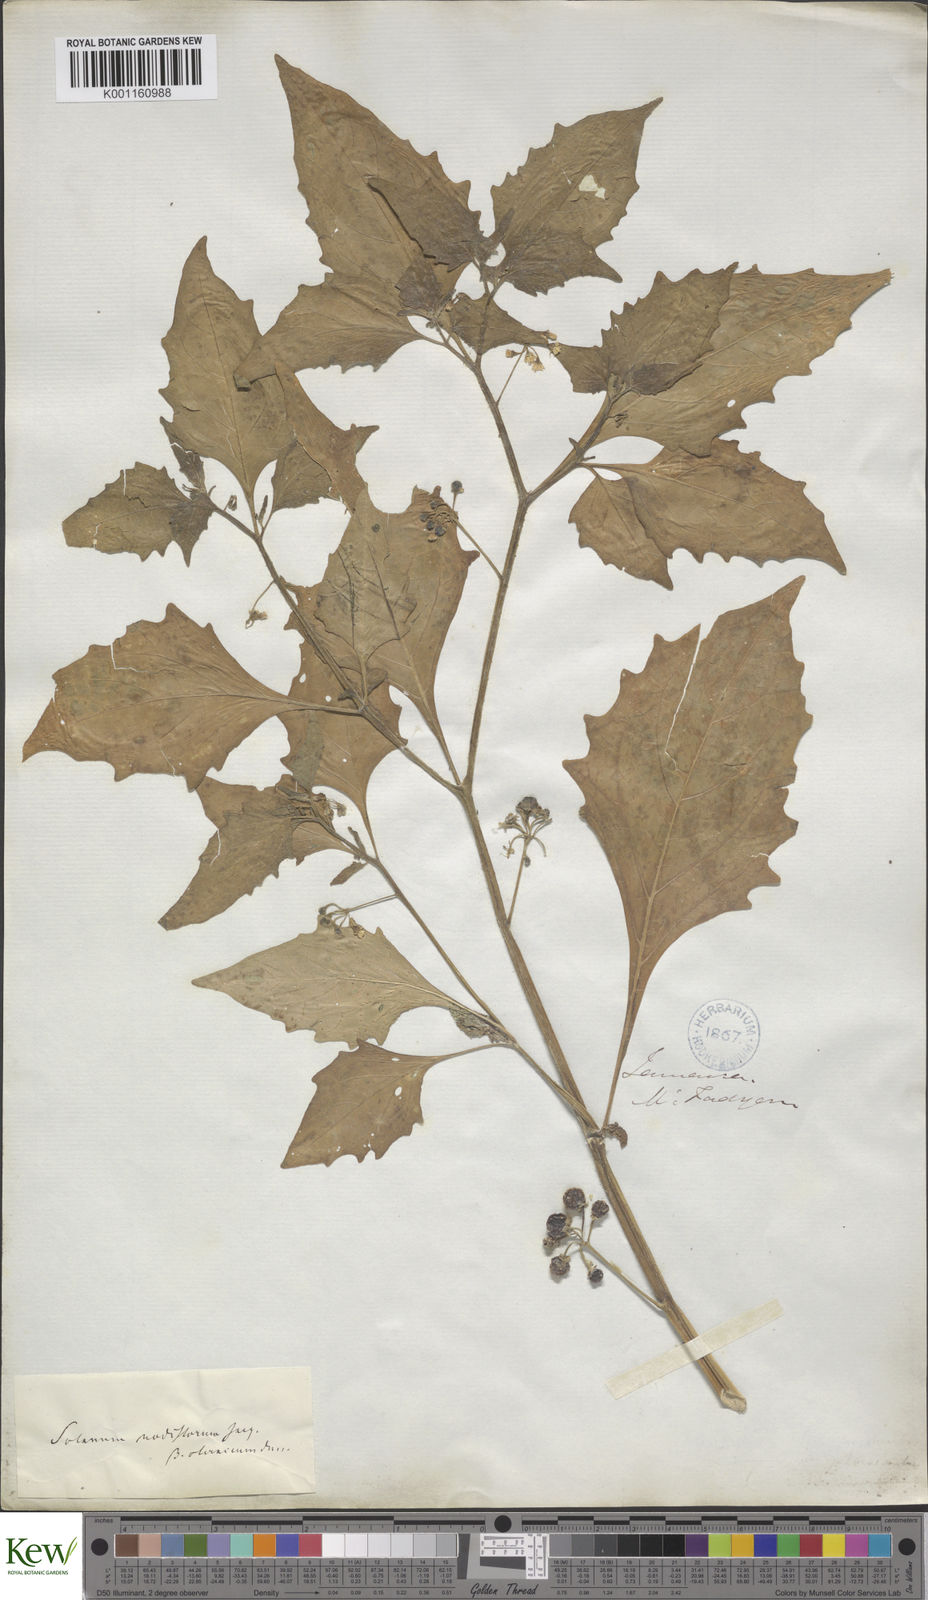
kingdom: Plantae
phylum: Tracheophyta
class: Magnoliopsida
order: Solanales
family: Solanaceae
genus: Solanum
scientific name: Solanum americanum
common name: American black nightshade
